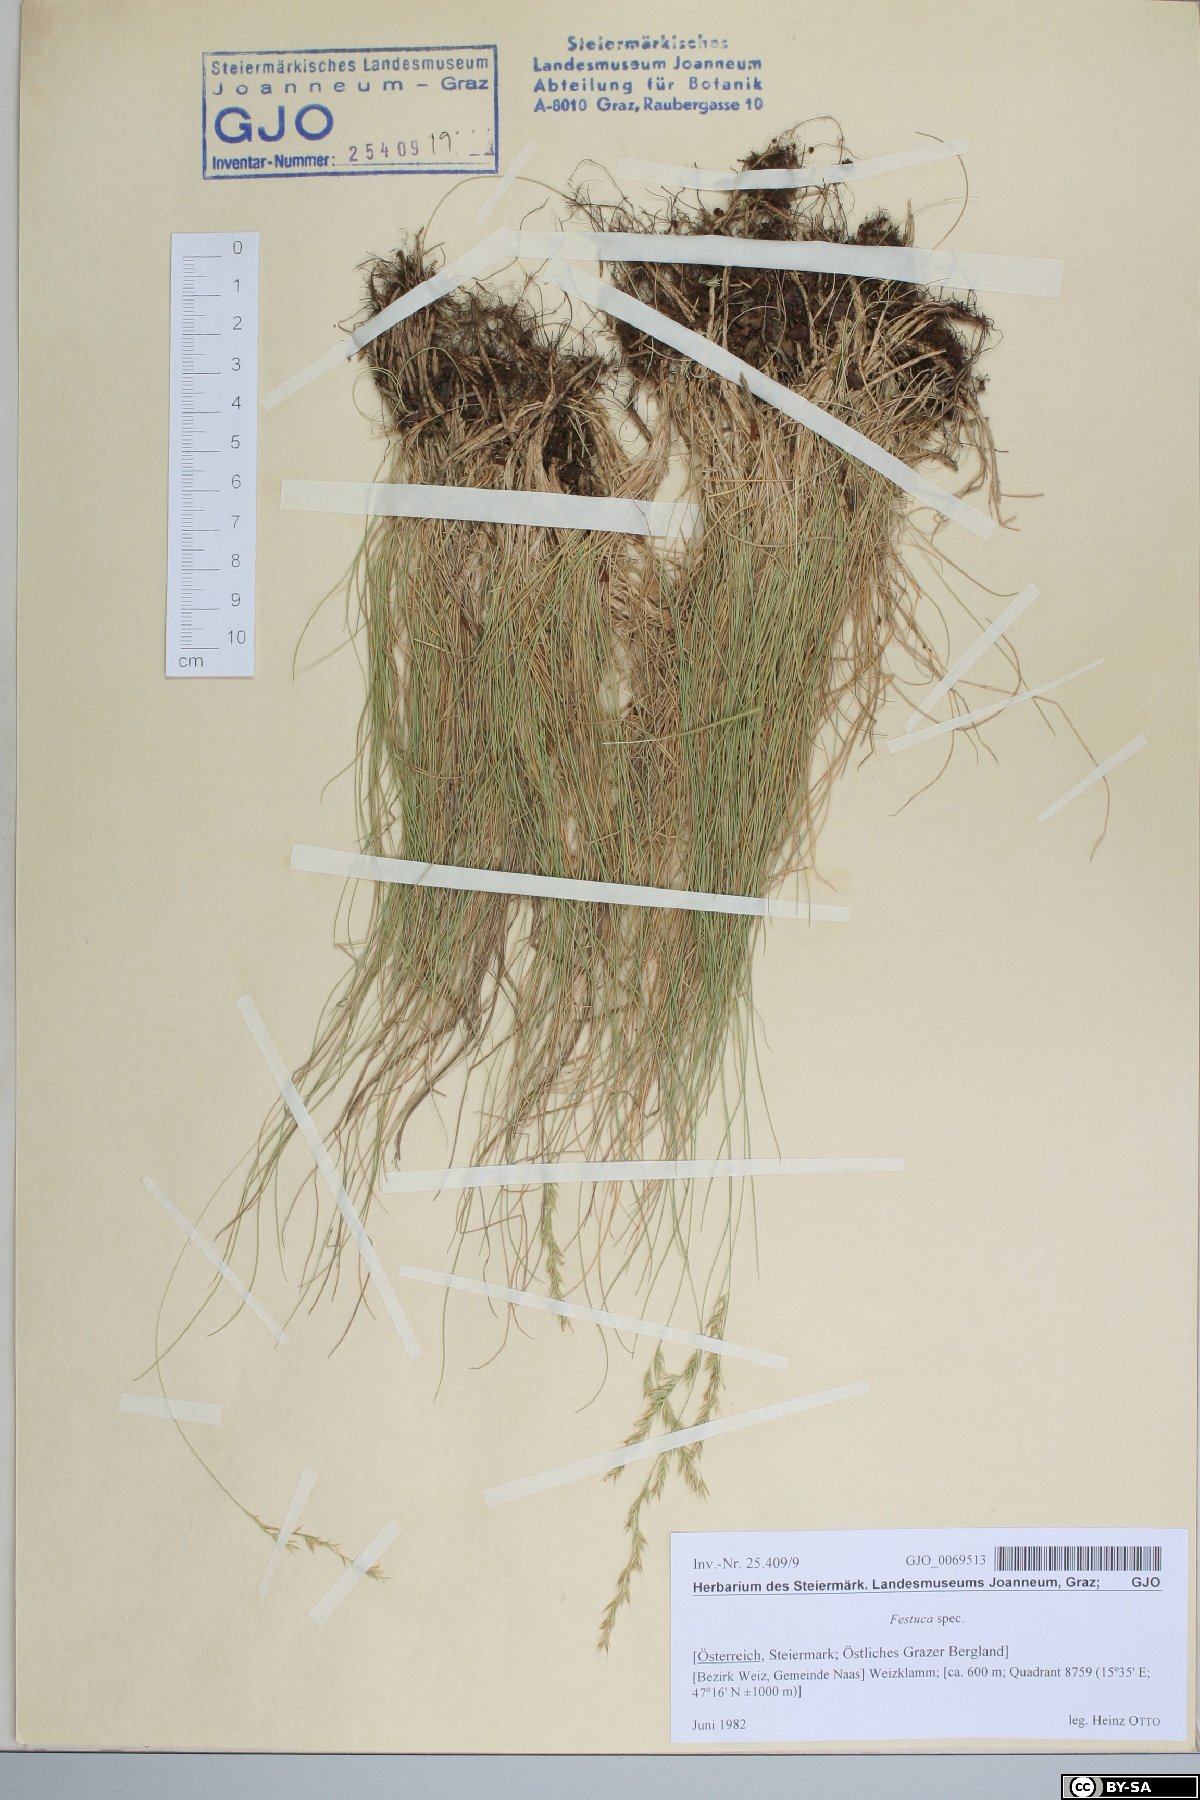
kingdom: Plantae
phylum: Tracheophyta
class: Liliopsida
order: Poales
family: Poaceae
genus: Festuca
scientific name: Festuca
